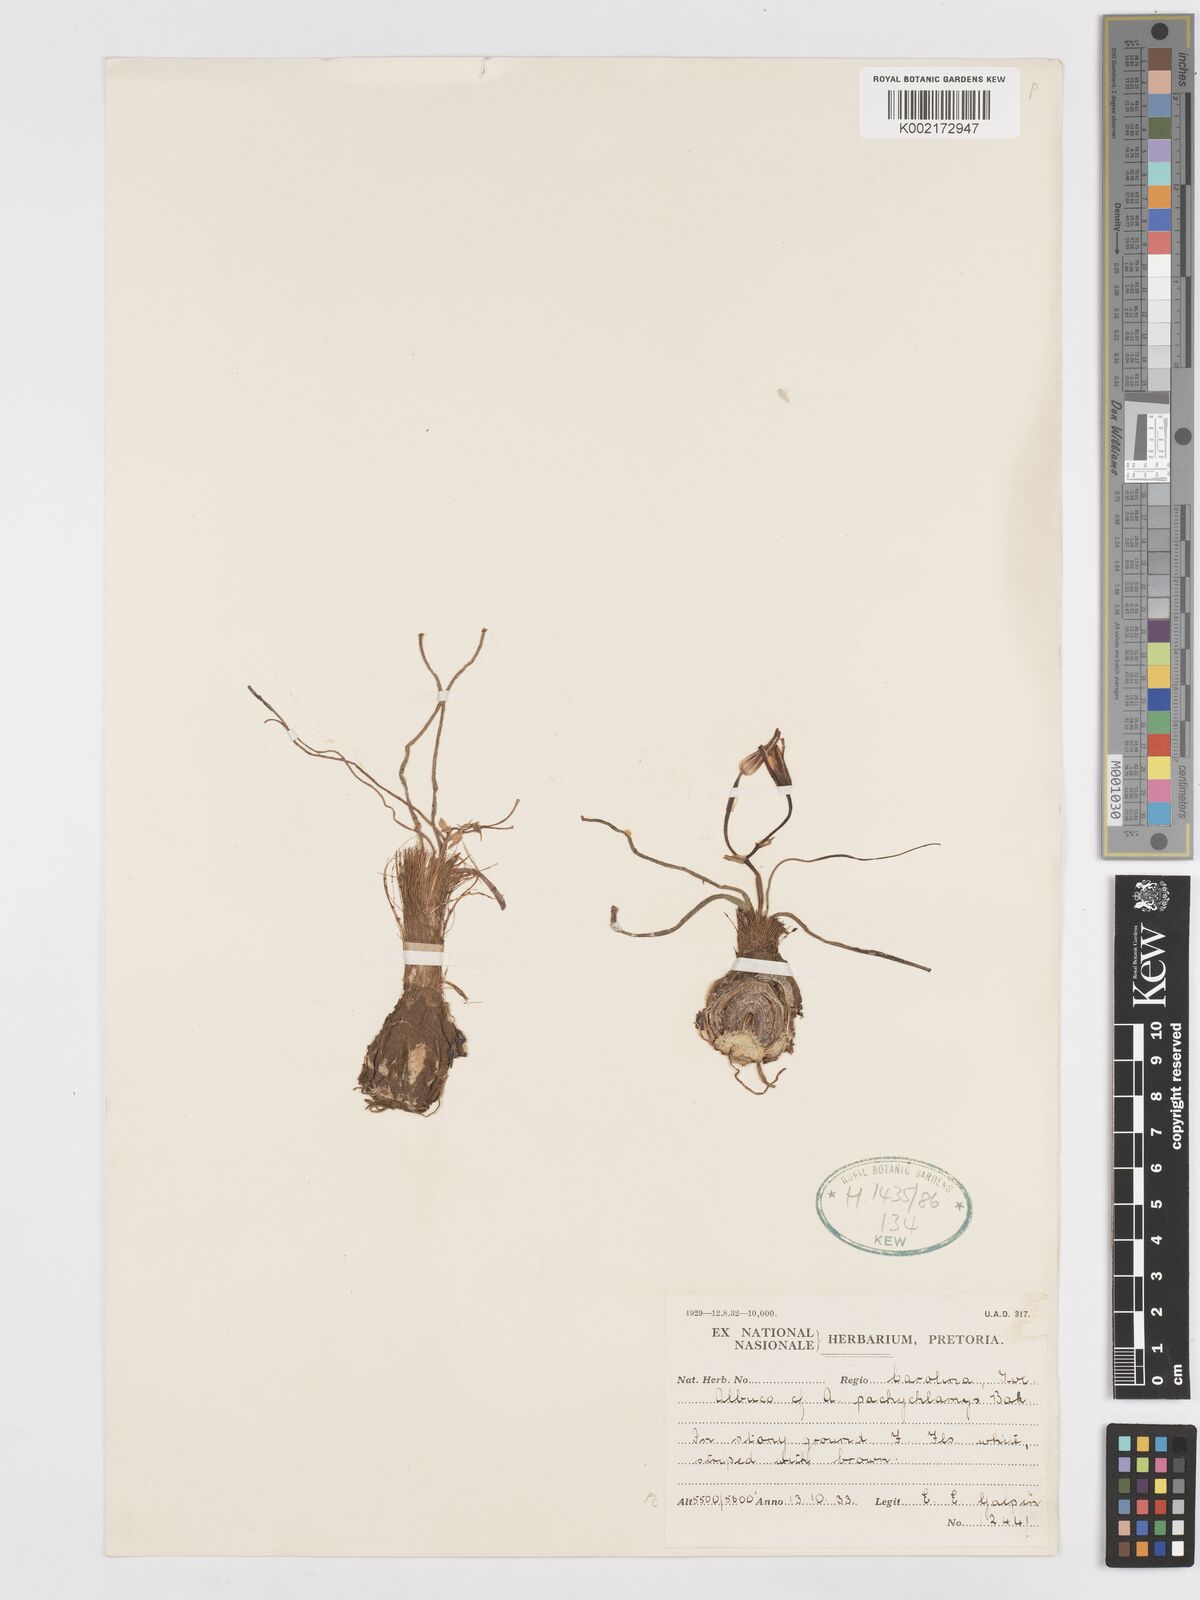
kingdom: Plantae
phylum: Tracheophyta
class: Liliopsida
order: Asparagales
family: Asparagaceae
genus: Albuca
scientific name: Albuca setosa
